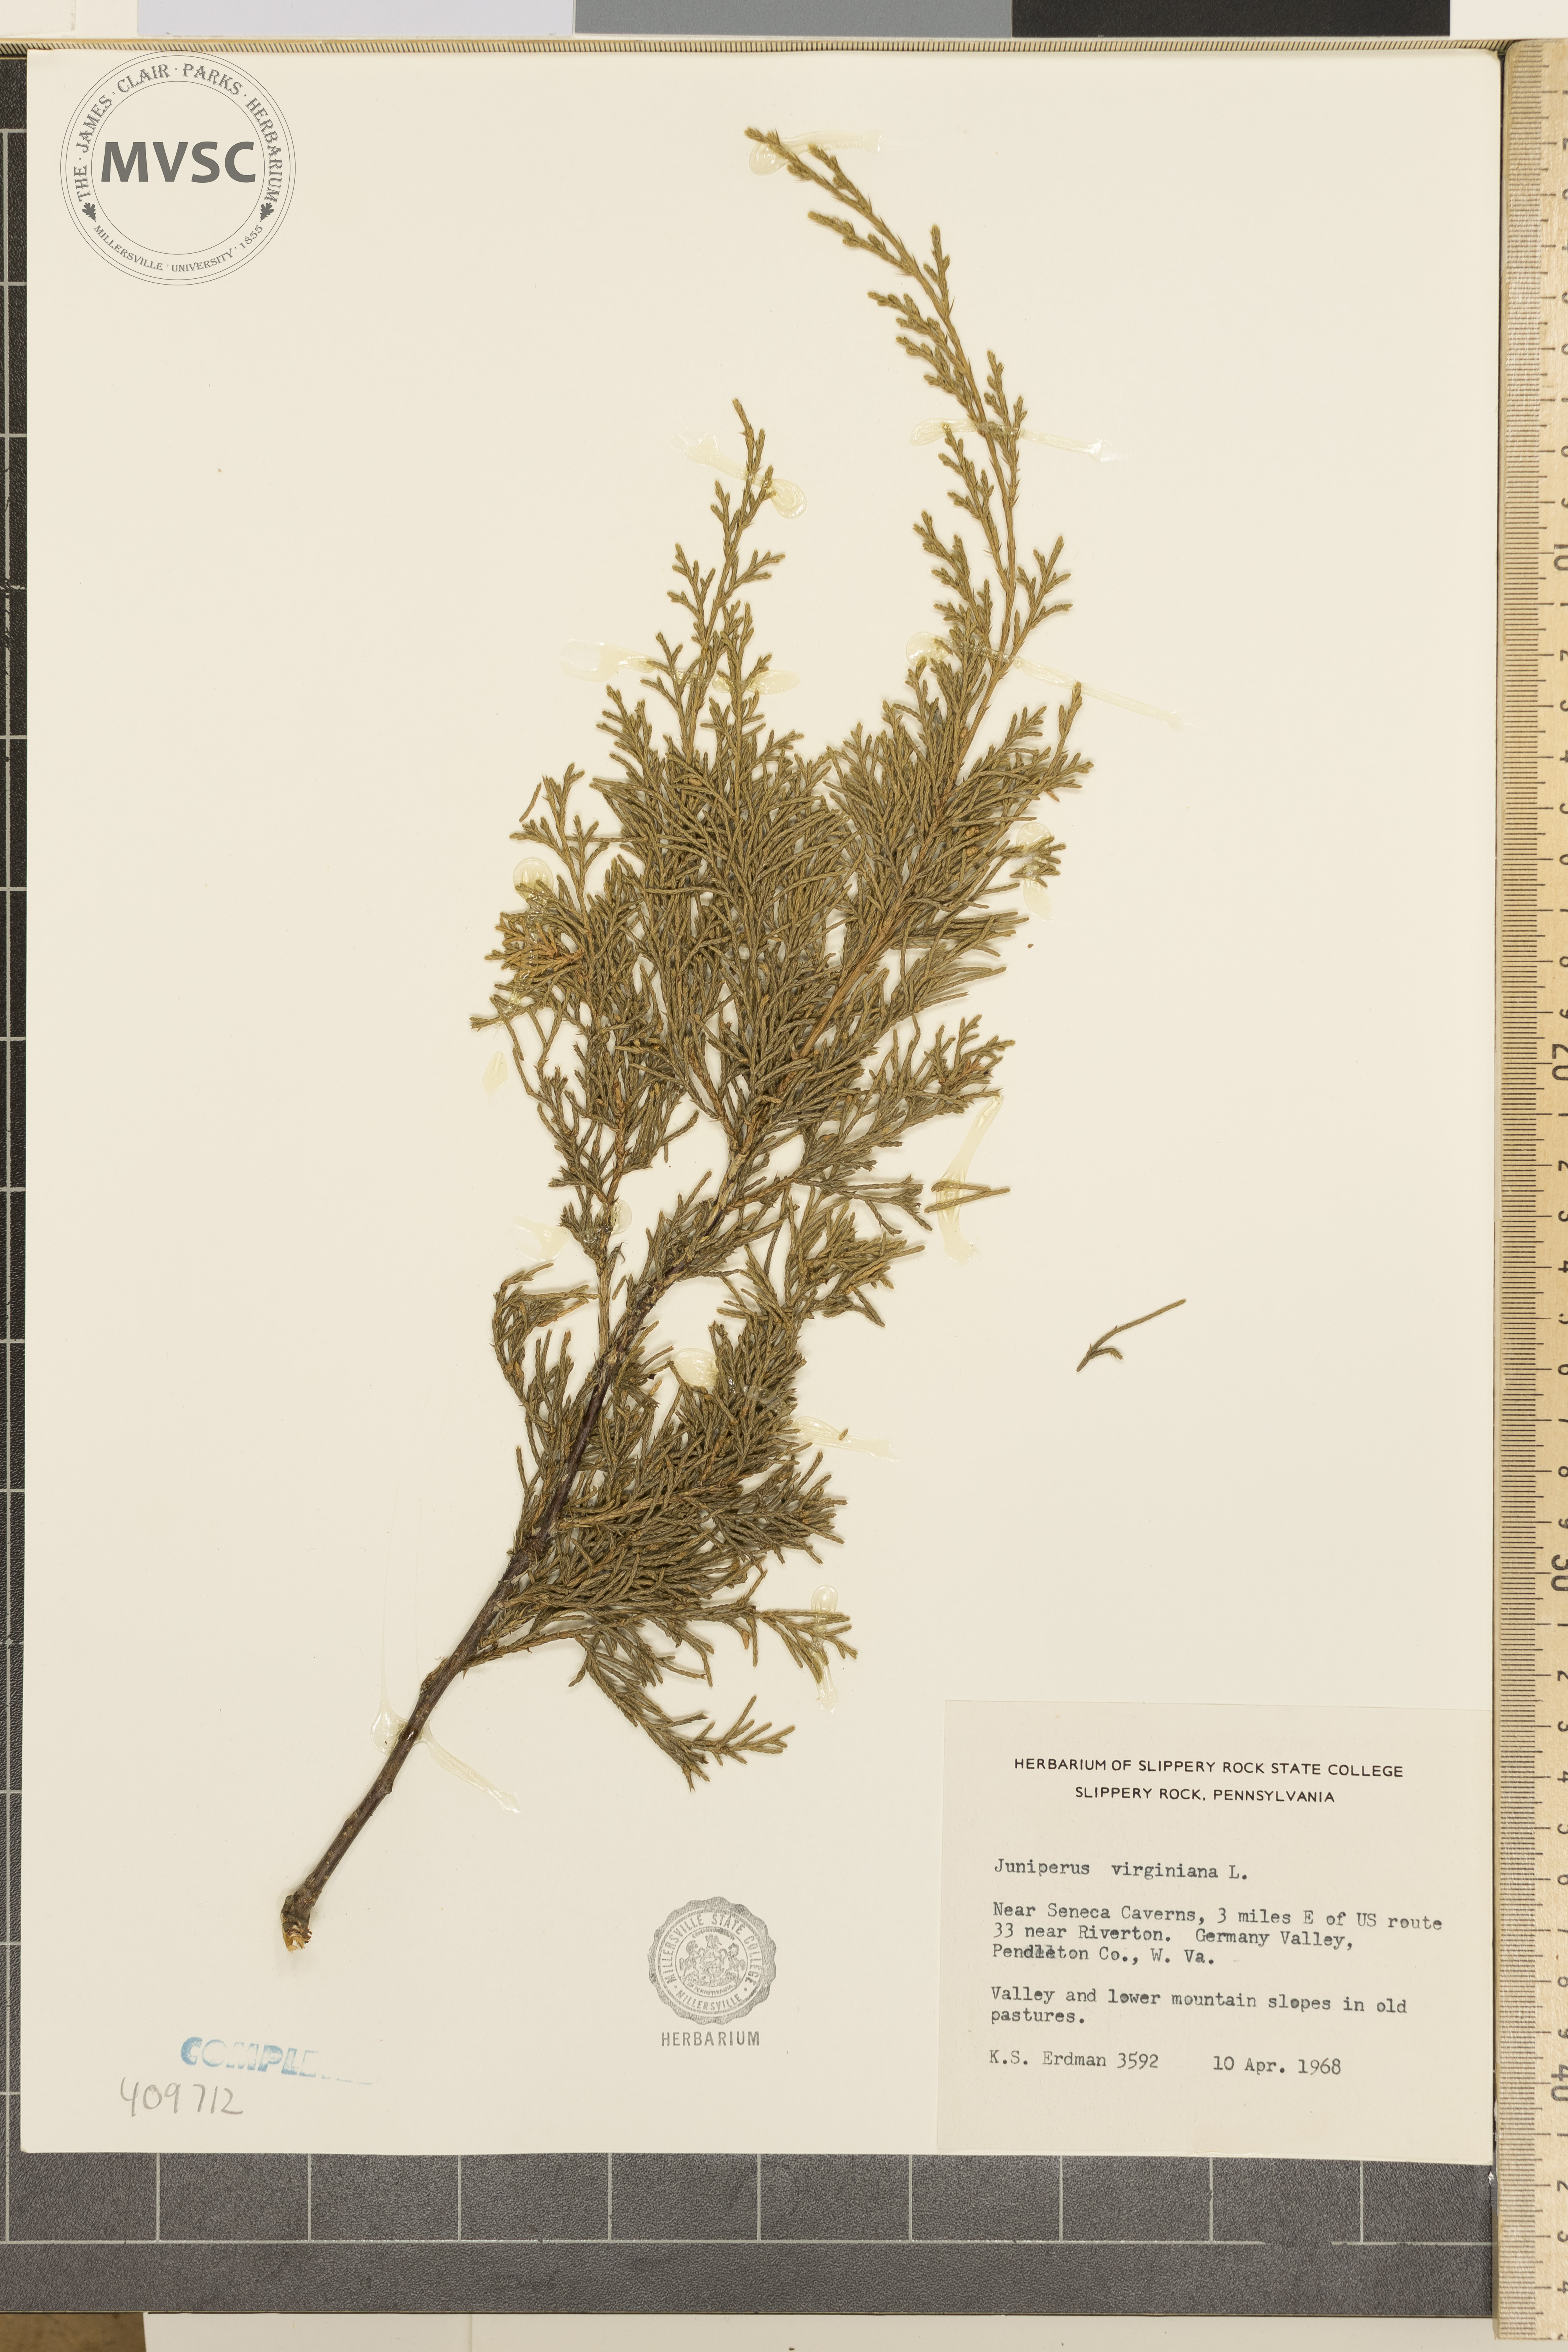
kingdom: Plantae
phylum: Tracheophyta
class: Pinopsida
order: Pinales
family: Cupressaceae
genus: Juniperus
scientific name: Juniperus virginiana
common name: Red juniper
